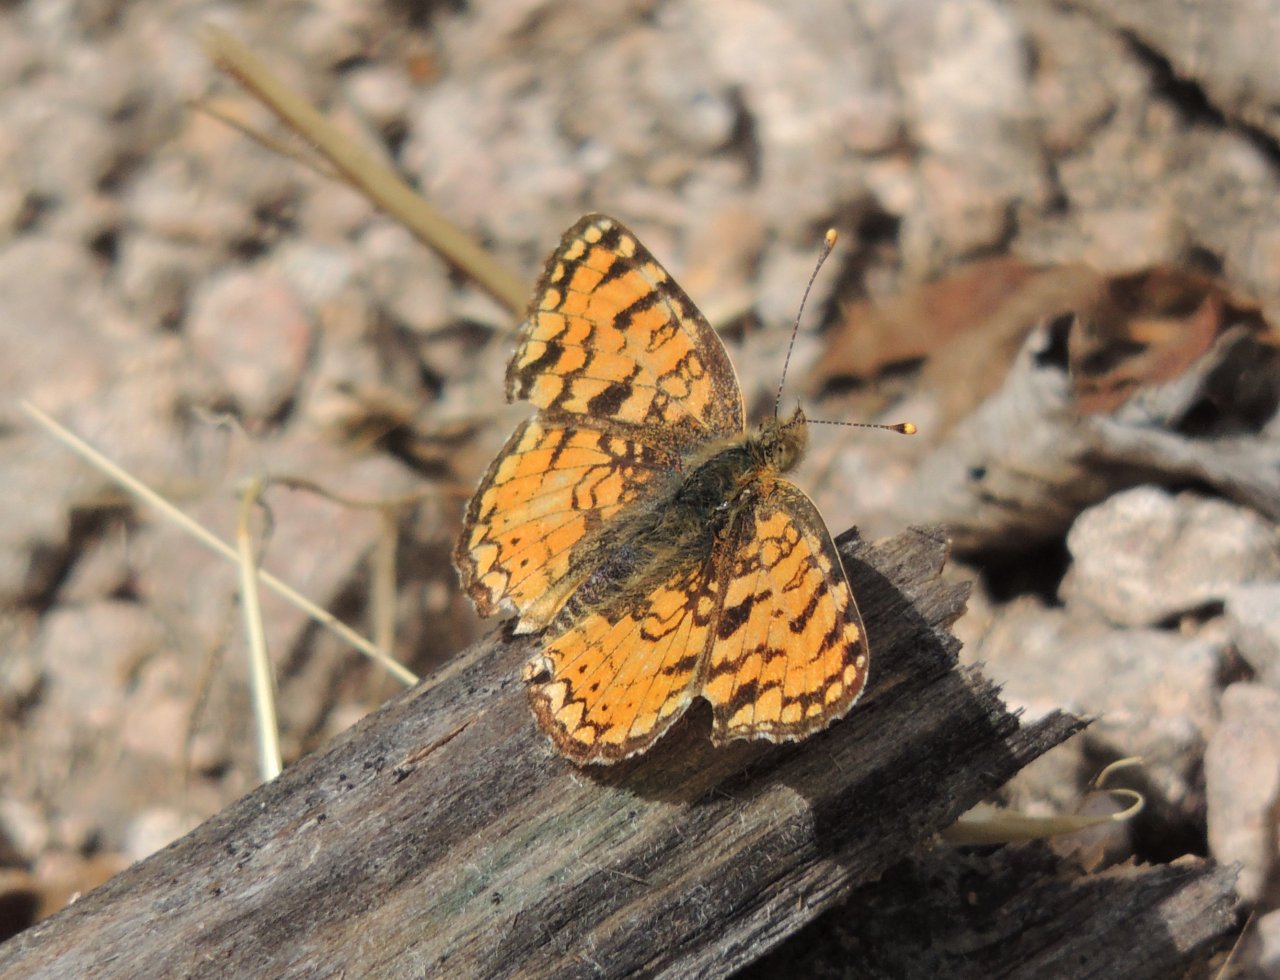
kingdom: Animalia
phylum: Arthropoda
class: Insecta
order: Lepidoptera
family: Nymphalidae
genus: Eresia
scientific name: Eresia aveyrona
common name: Mylitta Crescent
